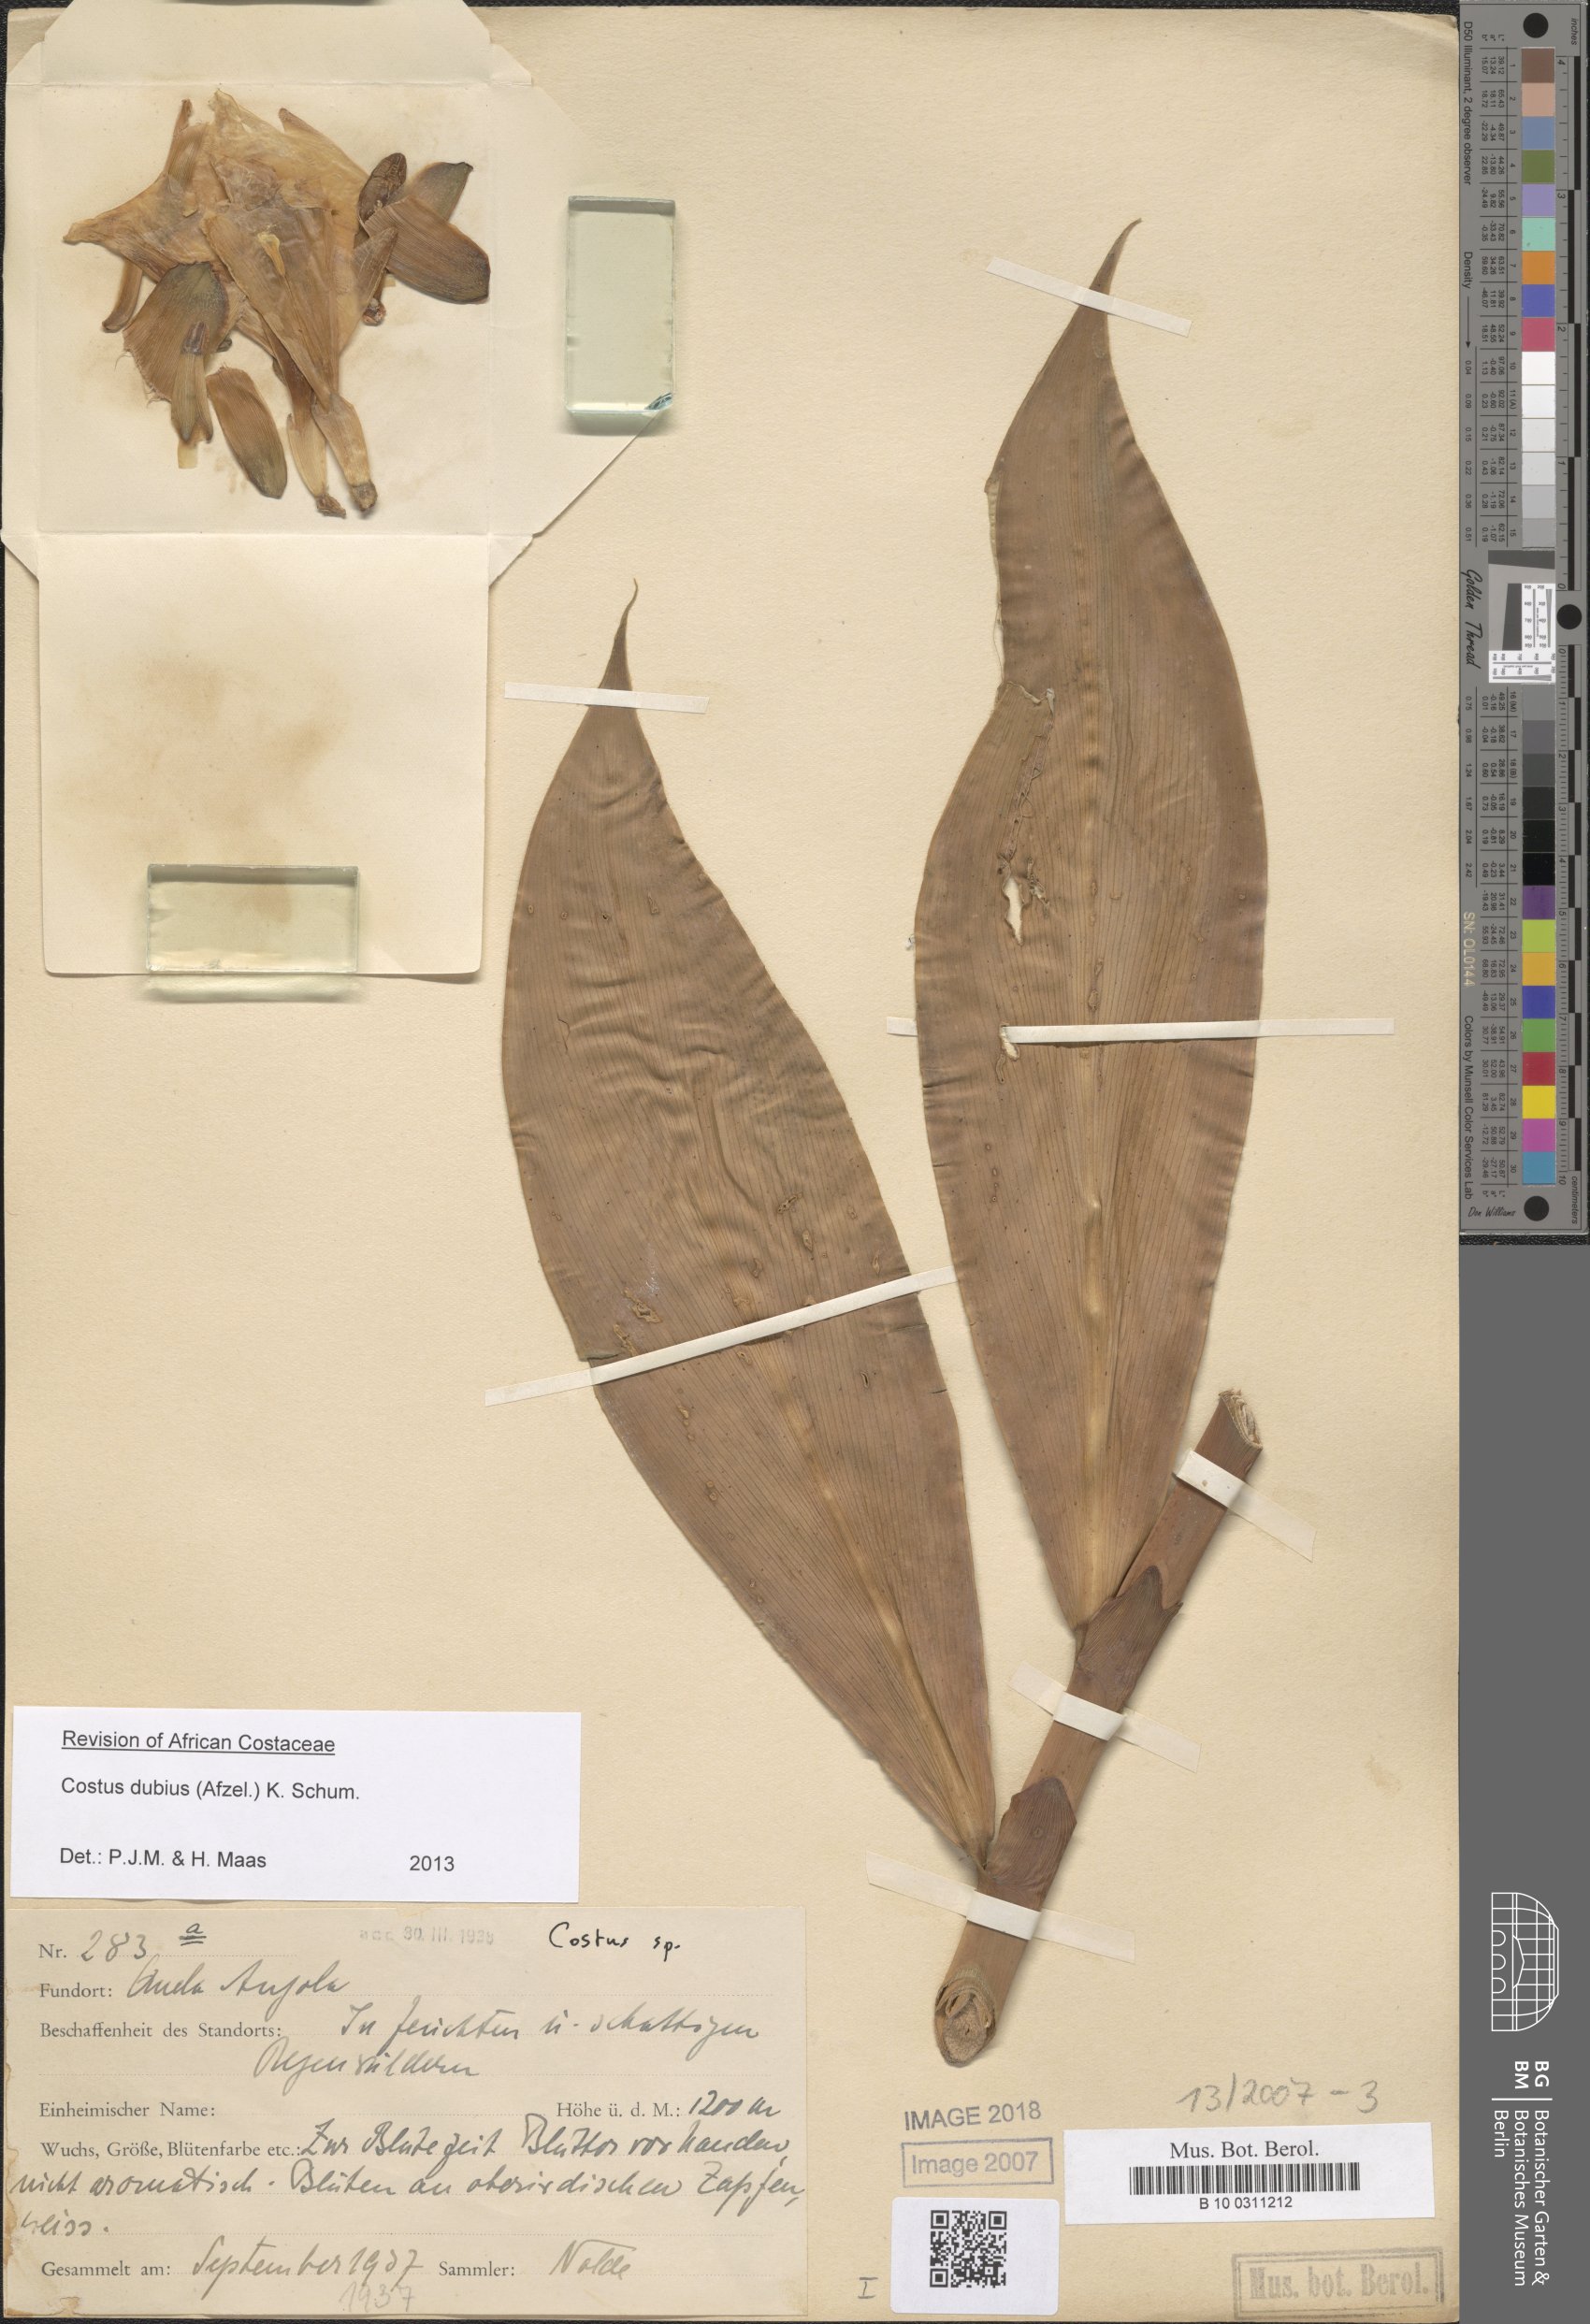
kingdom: Plantae
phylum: Tracheophyta
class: Liliopsida
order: Zingiberales
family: Costaceae
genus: Costus
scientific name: Costus dubius
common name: Costus
